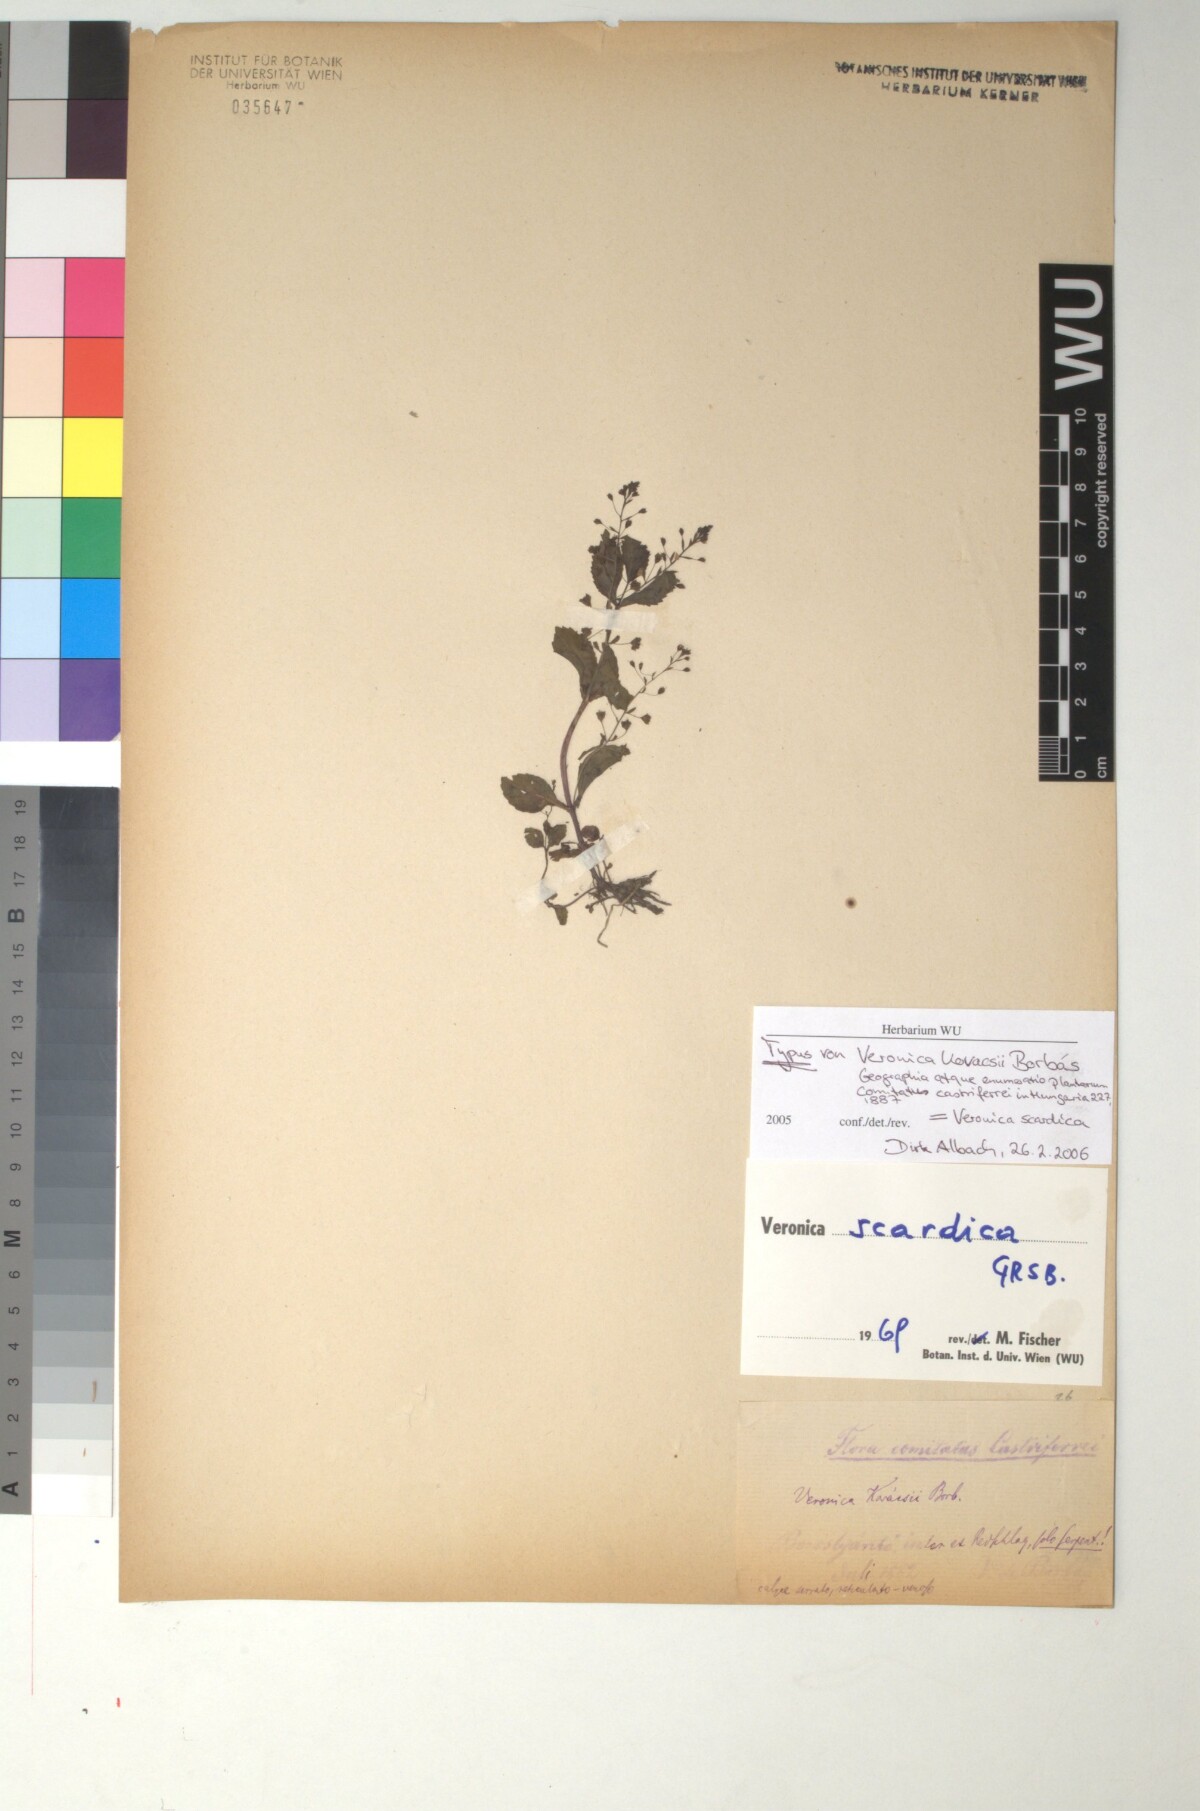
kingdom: Plantae
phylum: Tracheophyta
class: Magnoliopsida
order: Lamiales
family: Plantaginaceae
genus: Veronica
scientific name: Veronica anagallis-aquatica
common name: Water speedwell
